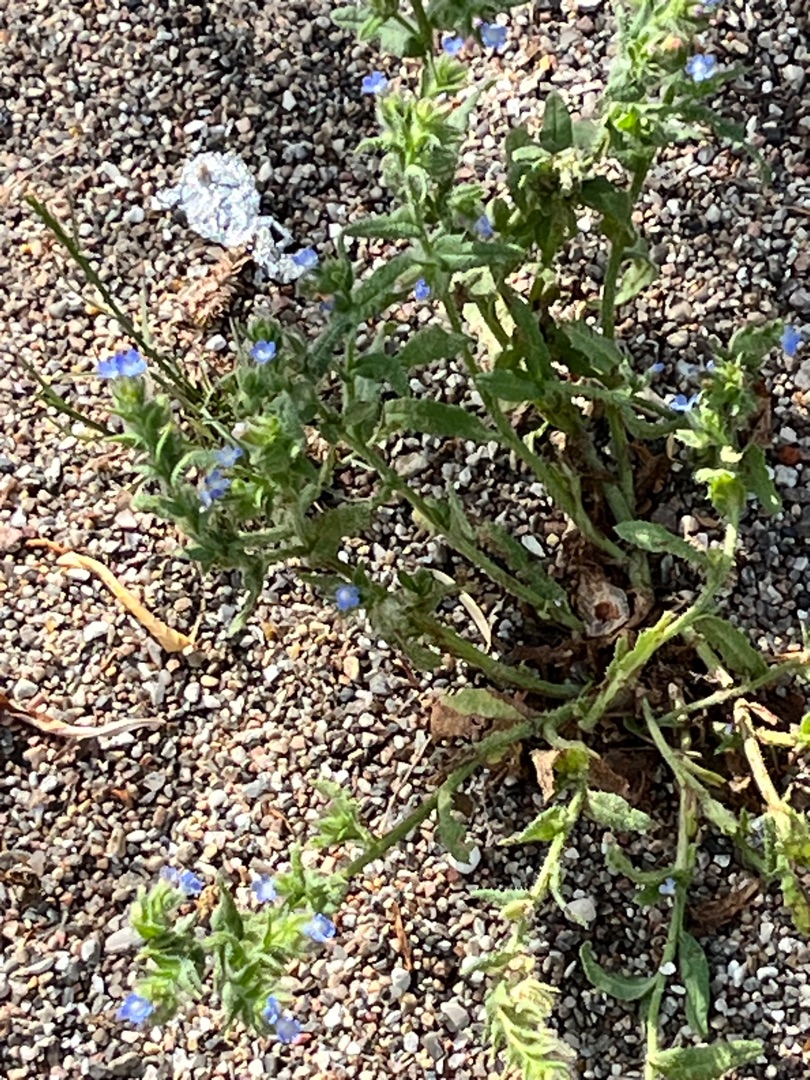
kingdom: Plantae
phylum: Tracheophyta
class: Magnoliopsida
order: Boraginales
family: Boraginaceae
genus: Lycopsis
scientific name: Lycopsis arvensis
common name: Krumhals
